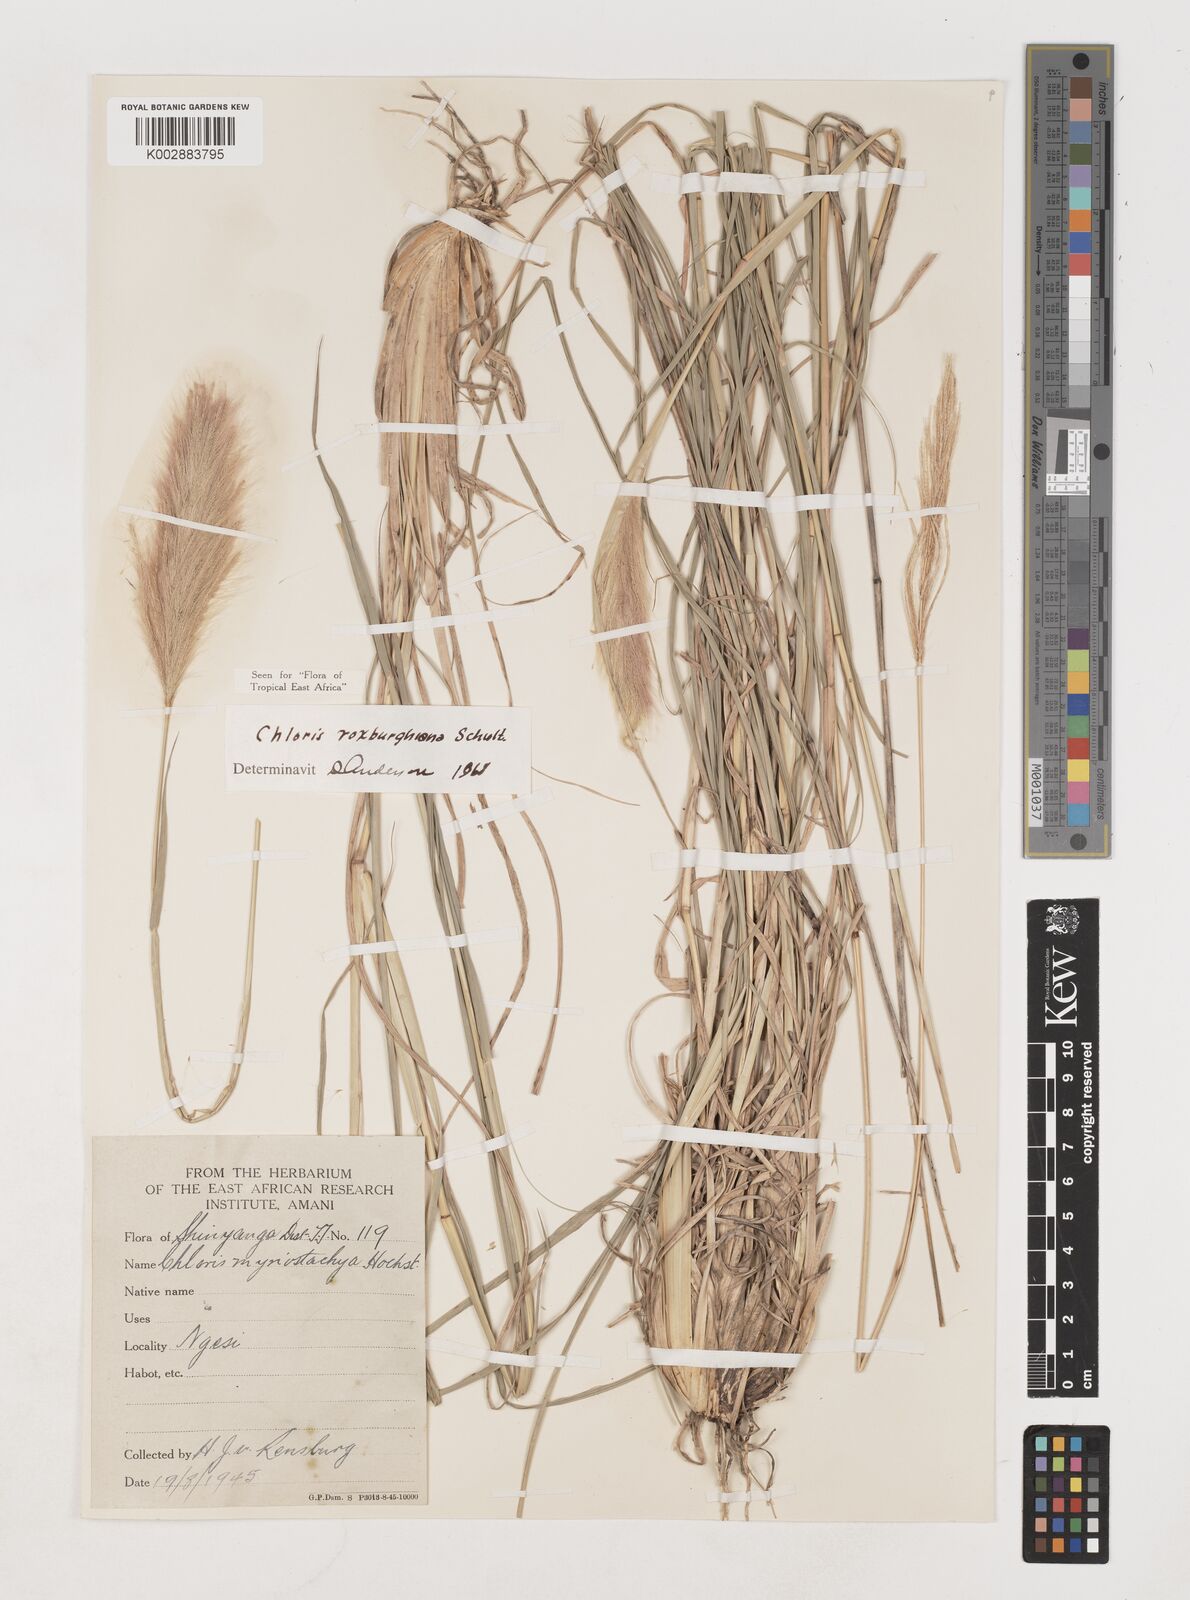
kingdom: Plantae
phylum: Tracheophyta
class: Liliopsida
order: Poales
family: Poaceae
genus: Tetrapogon
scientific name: Tetrapogon roxburghiana
